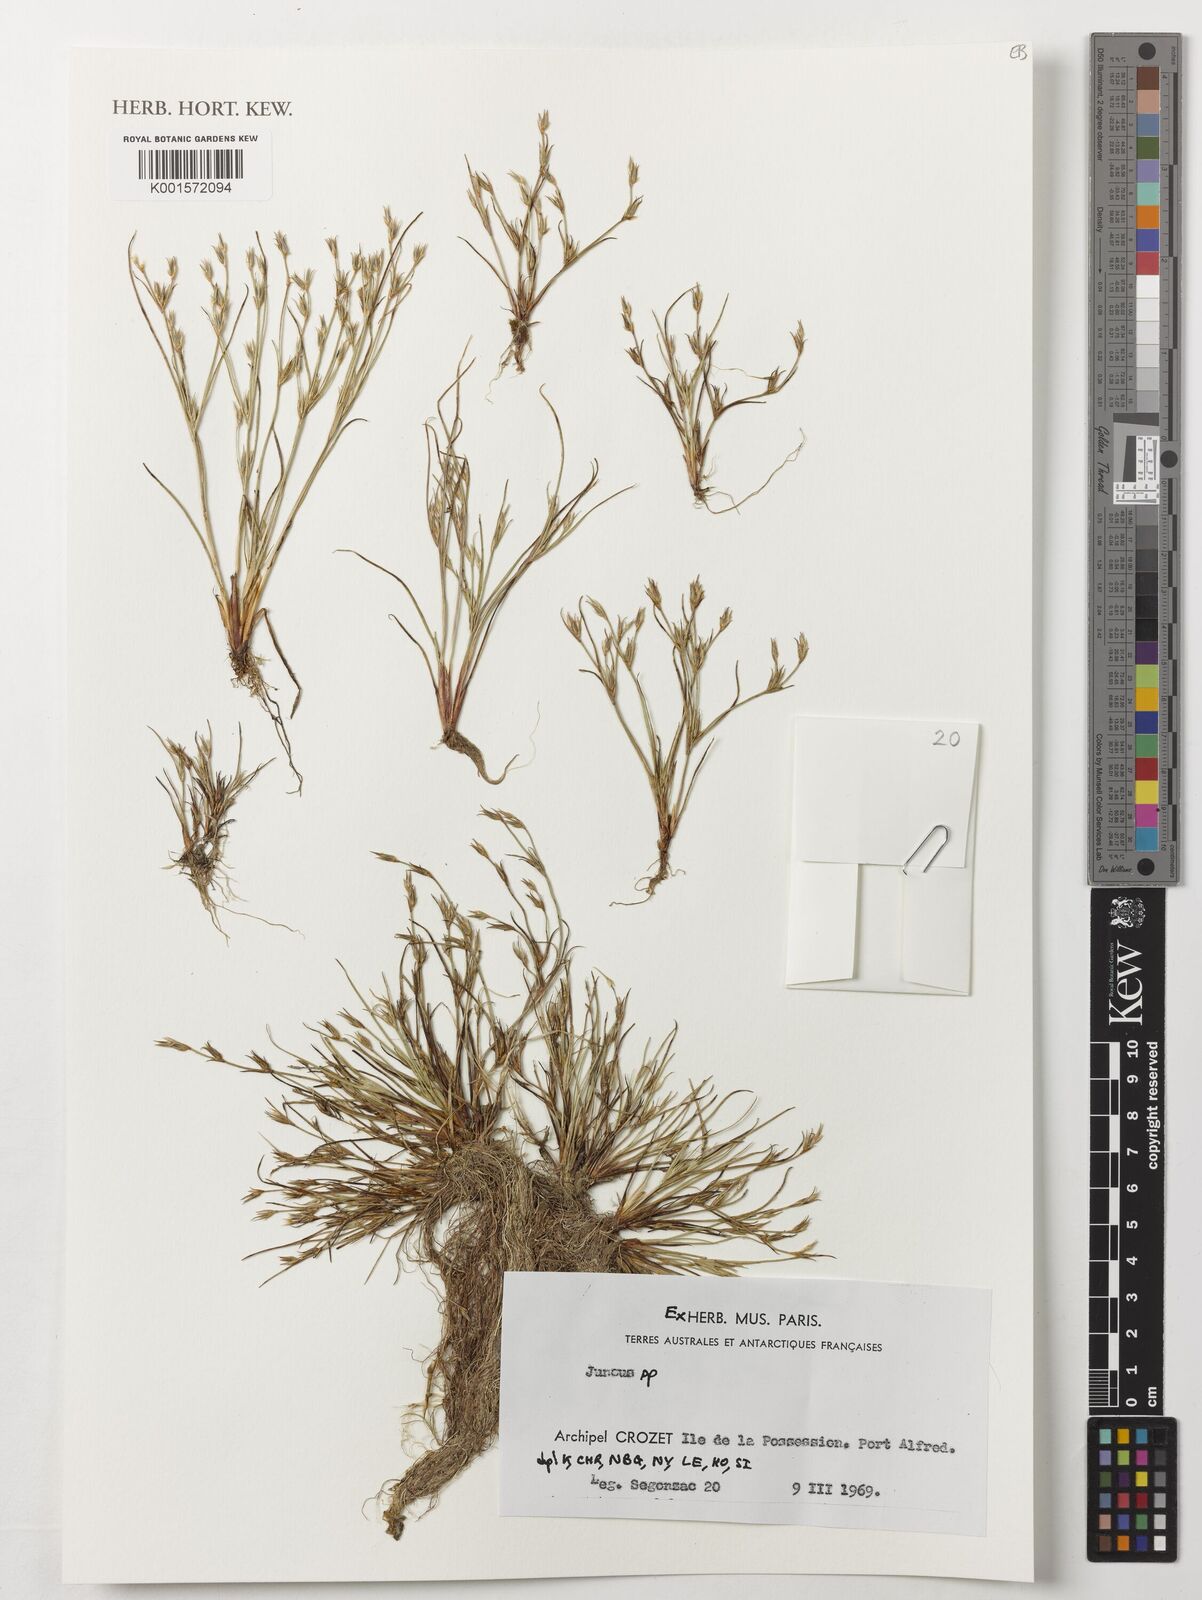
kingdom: Plantae
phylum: Tracheophyta
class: Liliopsida
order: Poales
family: Juncaceae
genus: Juncus
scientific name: Juncus
